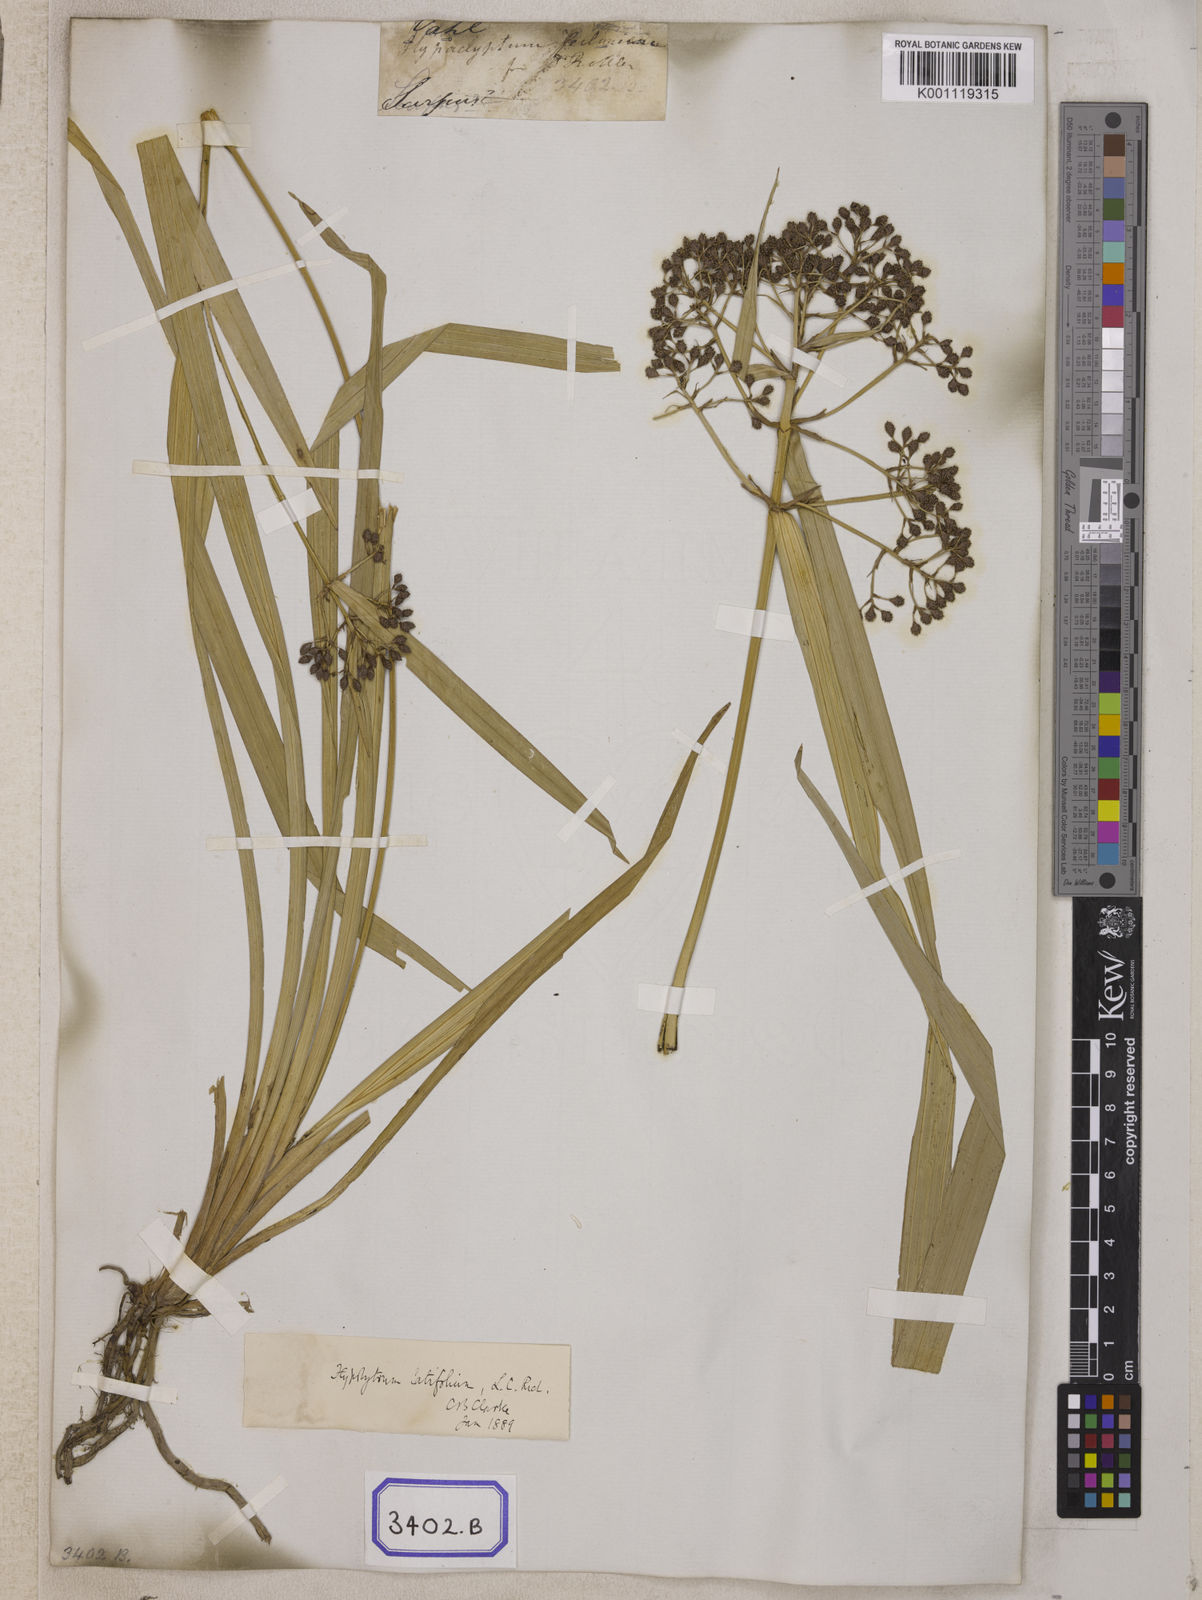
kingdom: Plantae
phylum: Tracheophyta
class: Liliopsida
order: Poales
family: Cyperaceae
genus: Hypolytrum
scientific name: Hypolytrum
